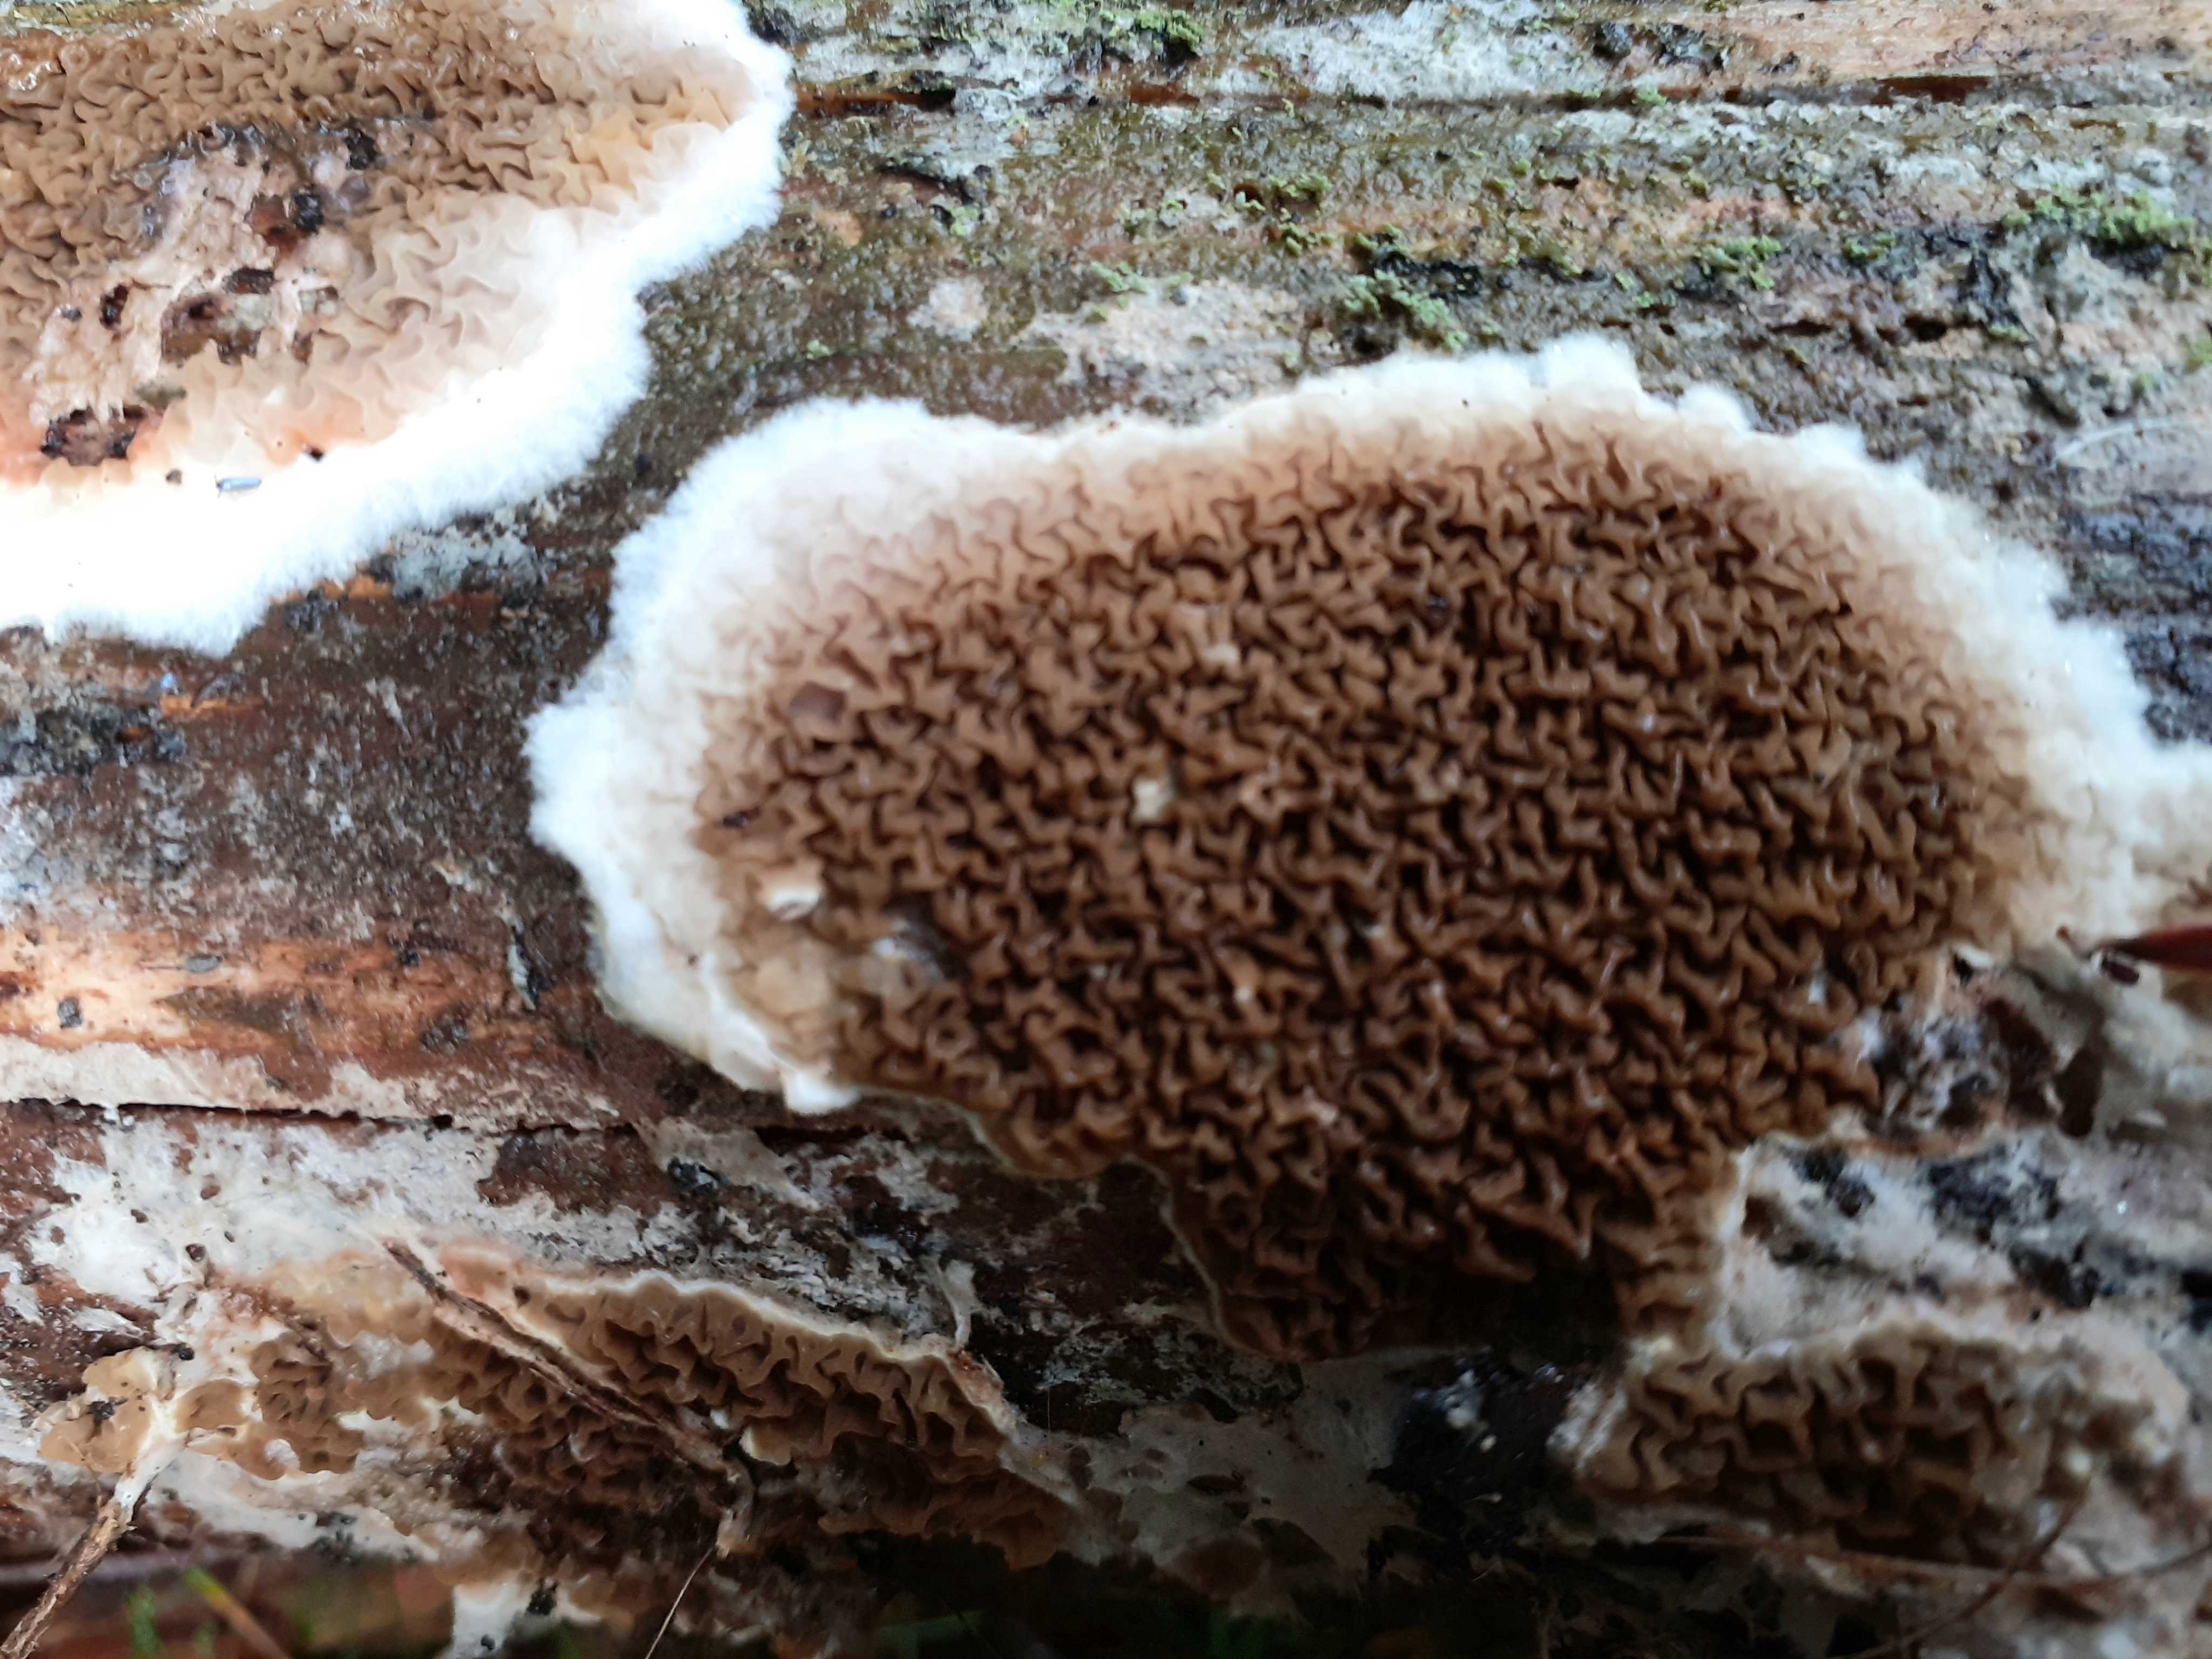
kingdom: Fungi
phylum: Basidiomycota
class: Agaricomycetes
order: Boletales
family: Serpulaceae
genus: Serpula
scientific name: Serpula himantioides
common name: tyndkødet hussvamp
